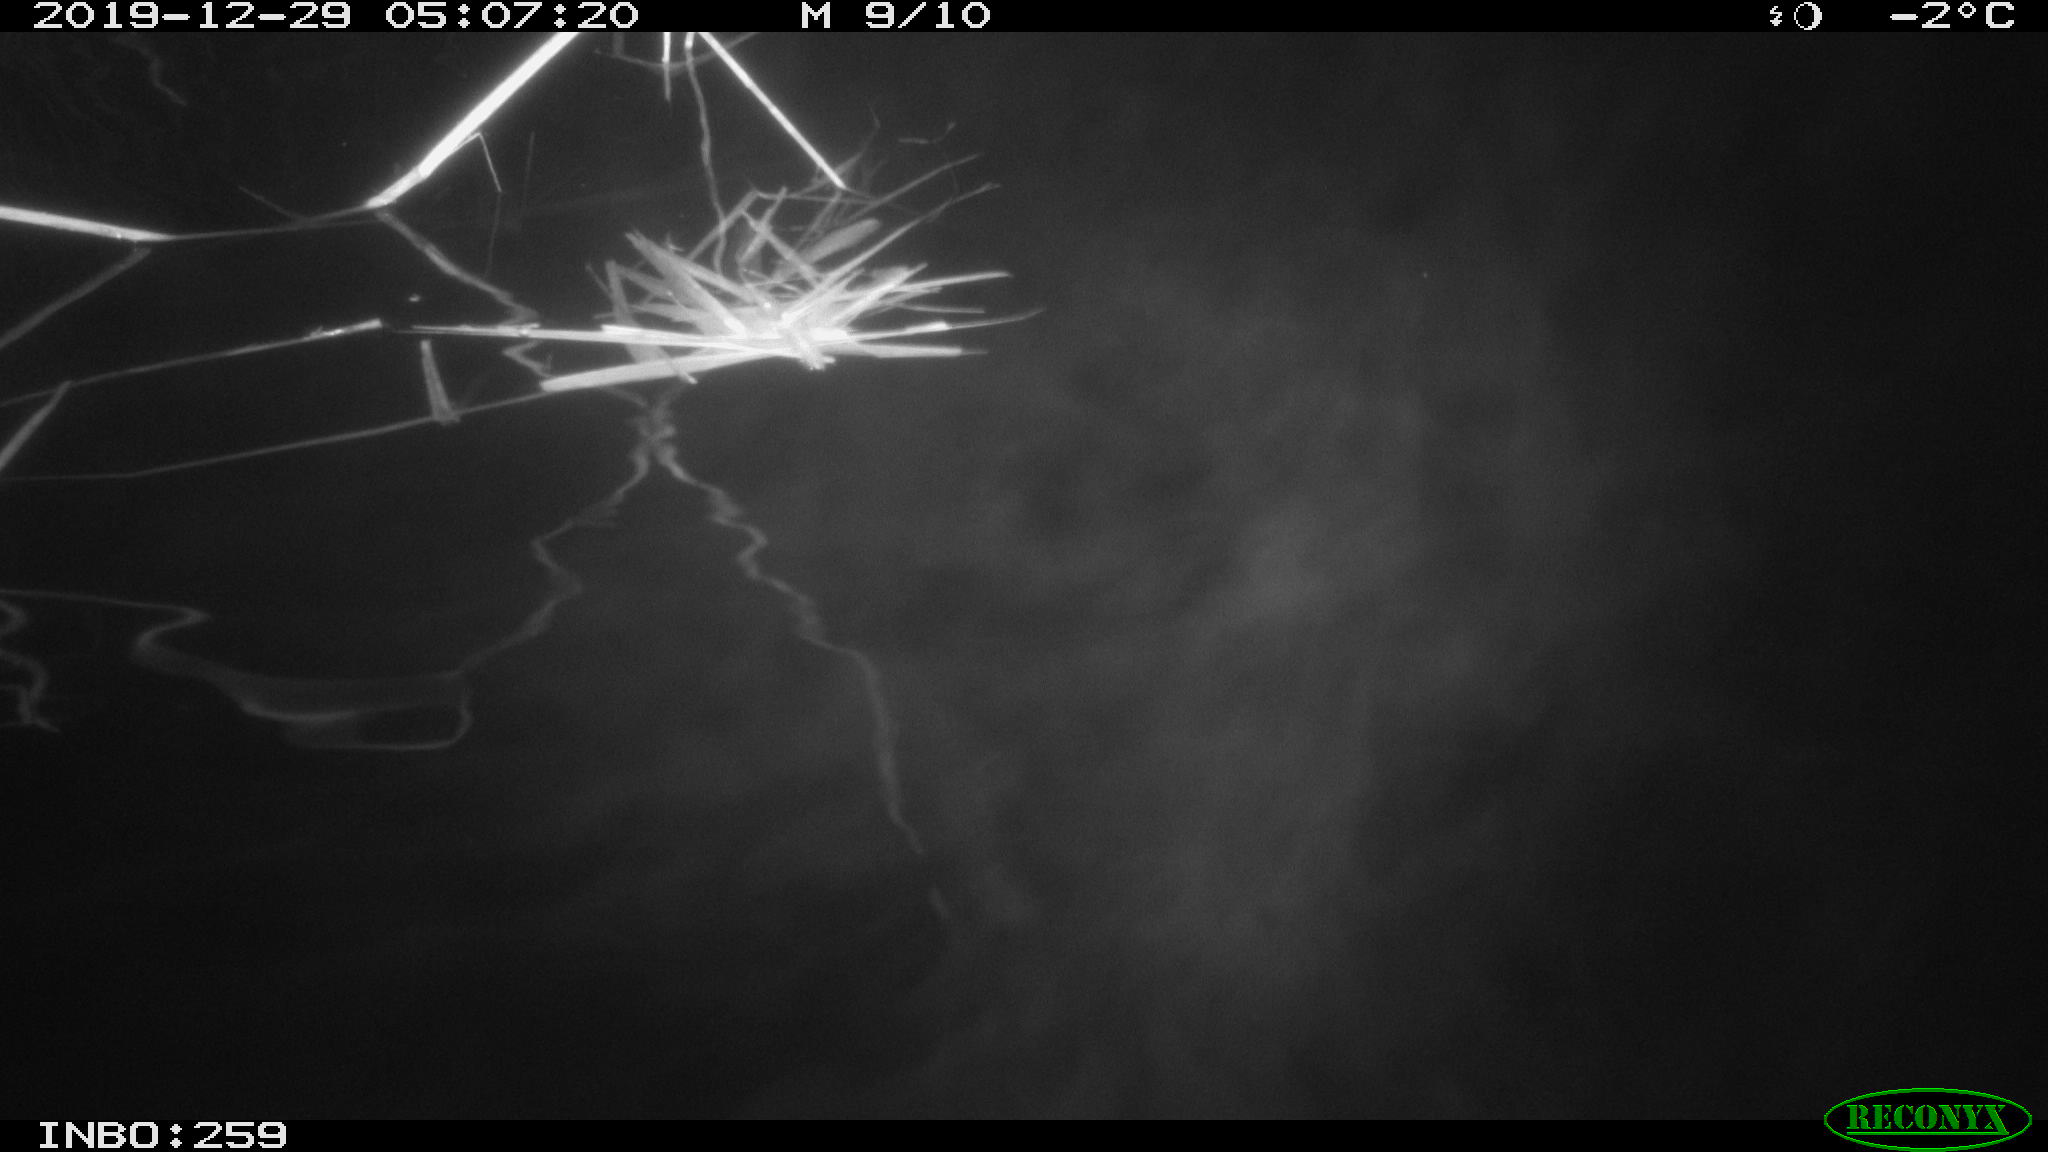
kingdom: Animalia
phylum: Chordata
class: Mammalia
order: Rodentia
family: Cricetidae
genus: Ondatra
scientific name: Ondatra zibethicus
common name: Muskrat
